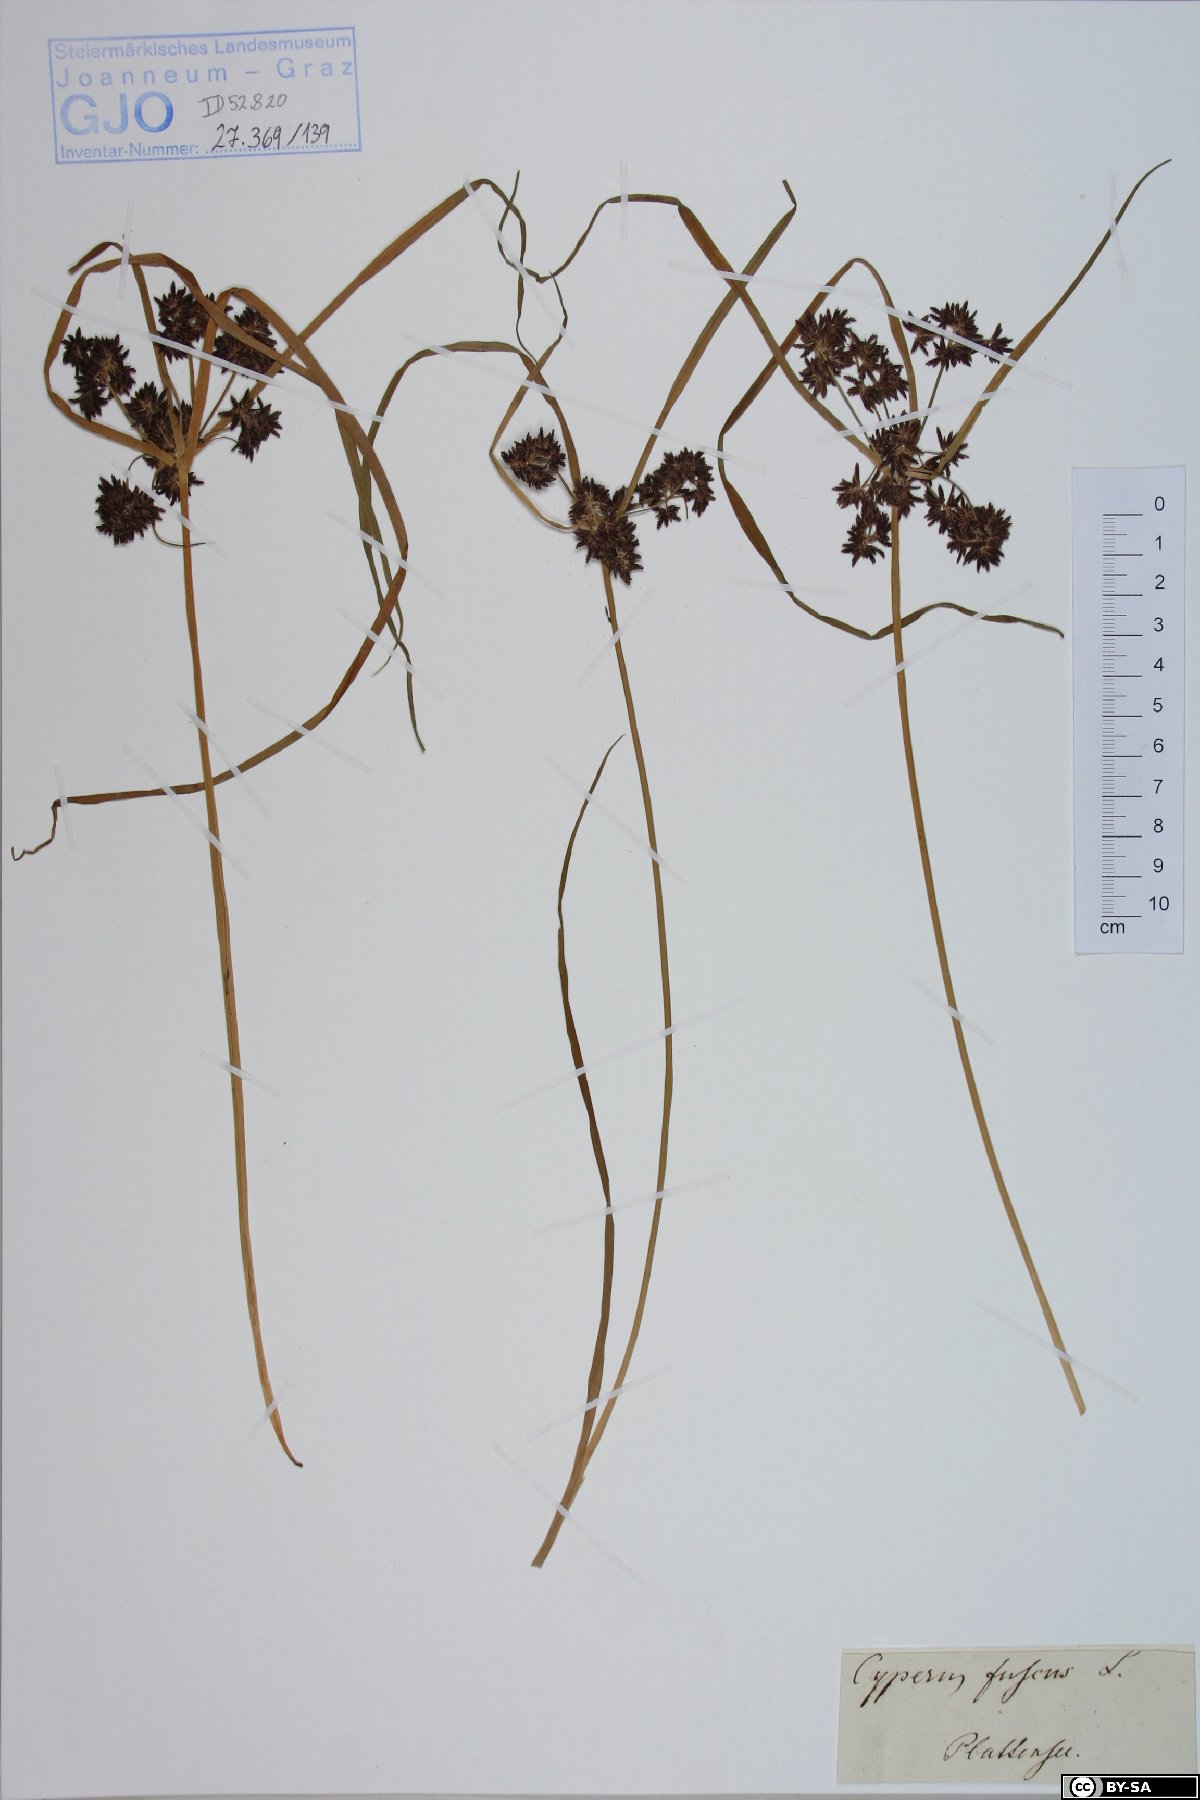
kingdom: Plantae
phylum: Tracheophyta
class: Liliopsida
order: Poales
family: Cyperaceae
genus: Cyperus
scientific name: Cyperus fuscus
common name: Brown galingale
